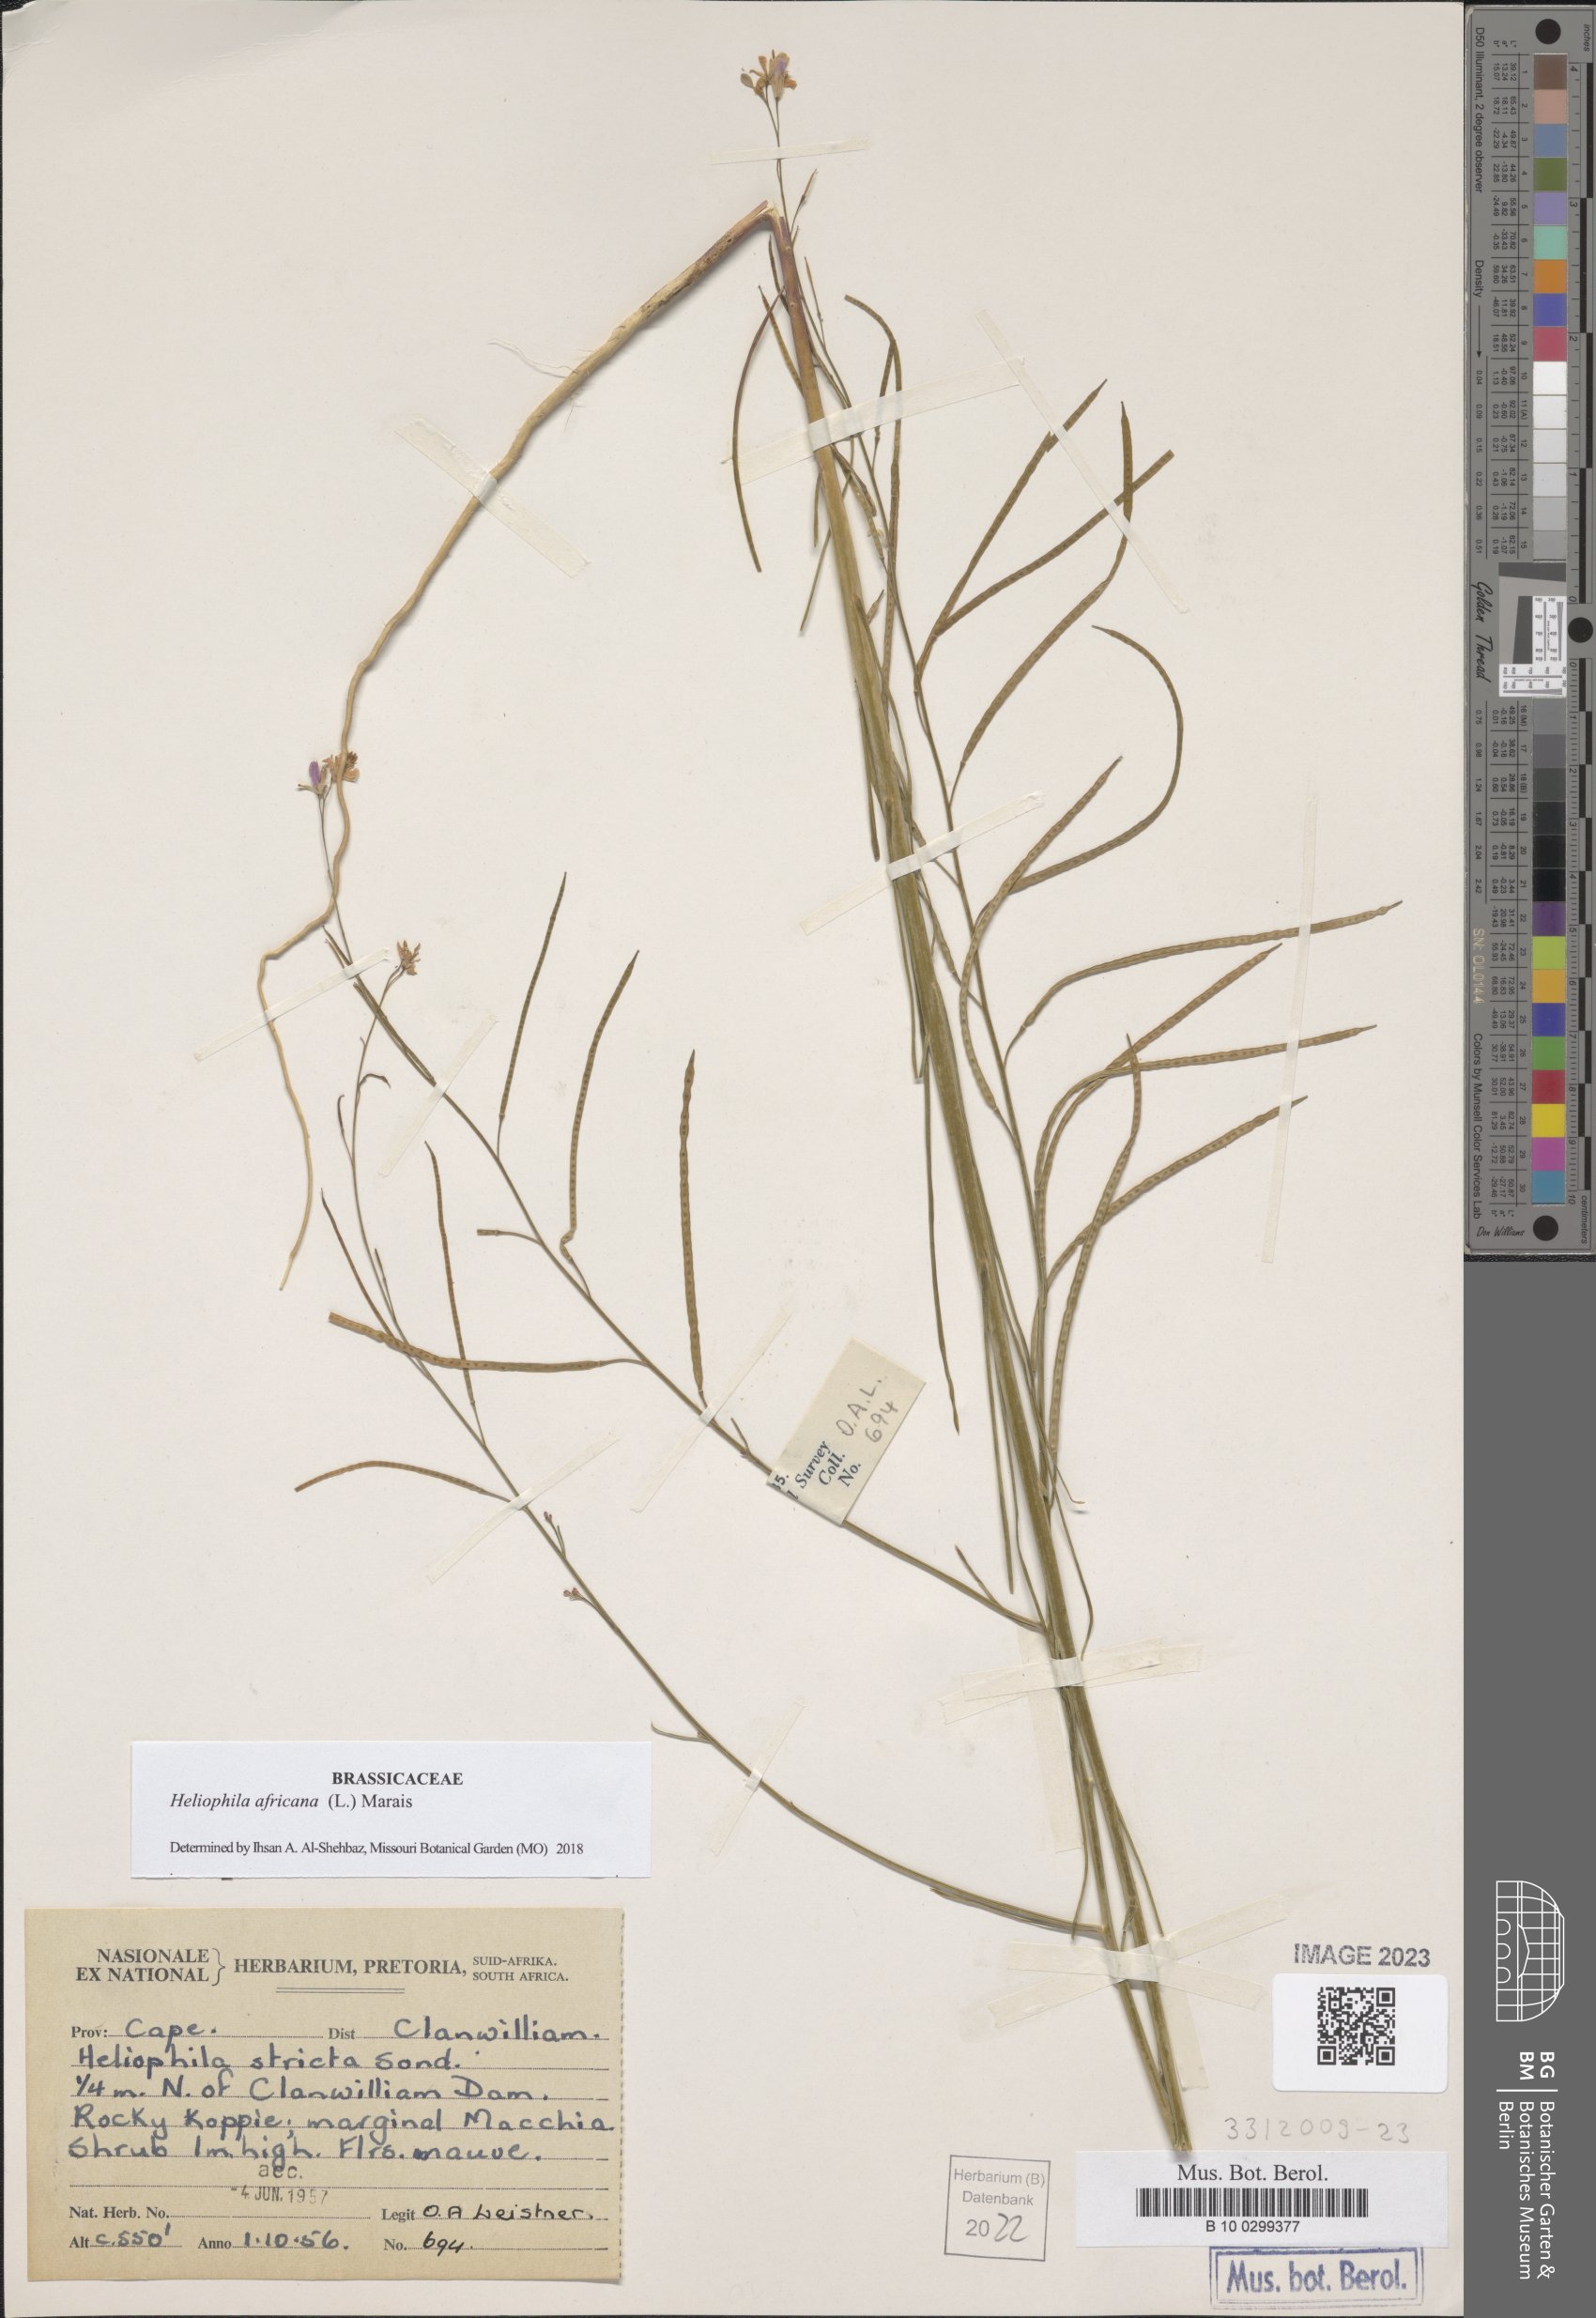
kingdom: Plantae
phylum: Tracheophyta
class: Magnoliopsida
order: Brassicales
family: Brassicaceae
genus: Heliophila
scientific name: Heliophila africana
